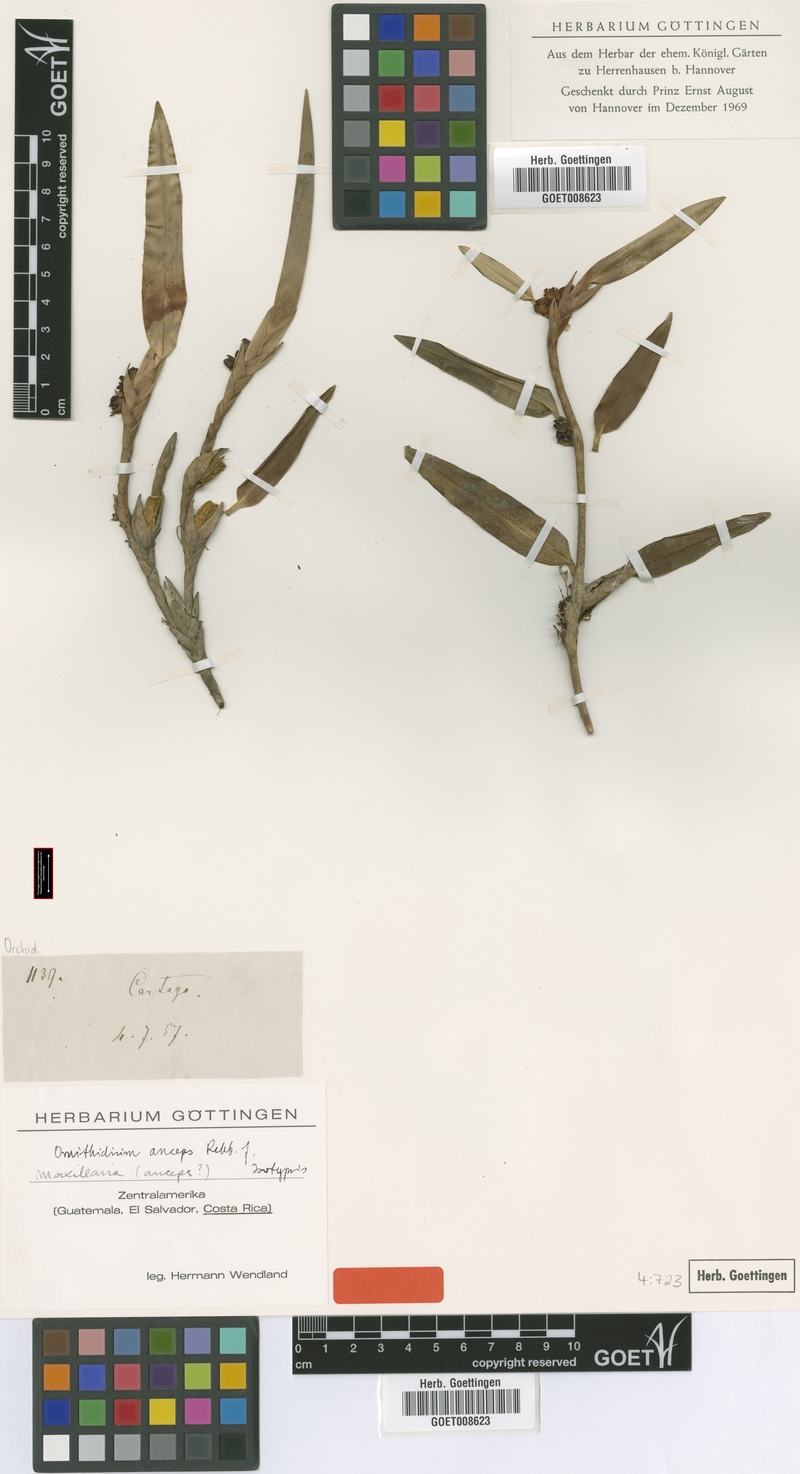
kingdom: Plantae
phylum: Tracheophyta
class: Liliopsida
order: Asparagales
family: Orchidaceae
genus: Maxillaria
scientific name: Maxillaria pseudoneglecta
